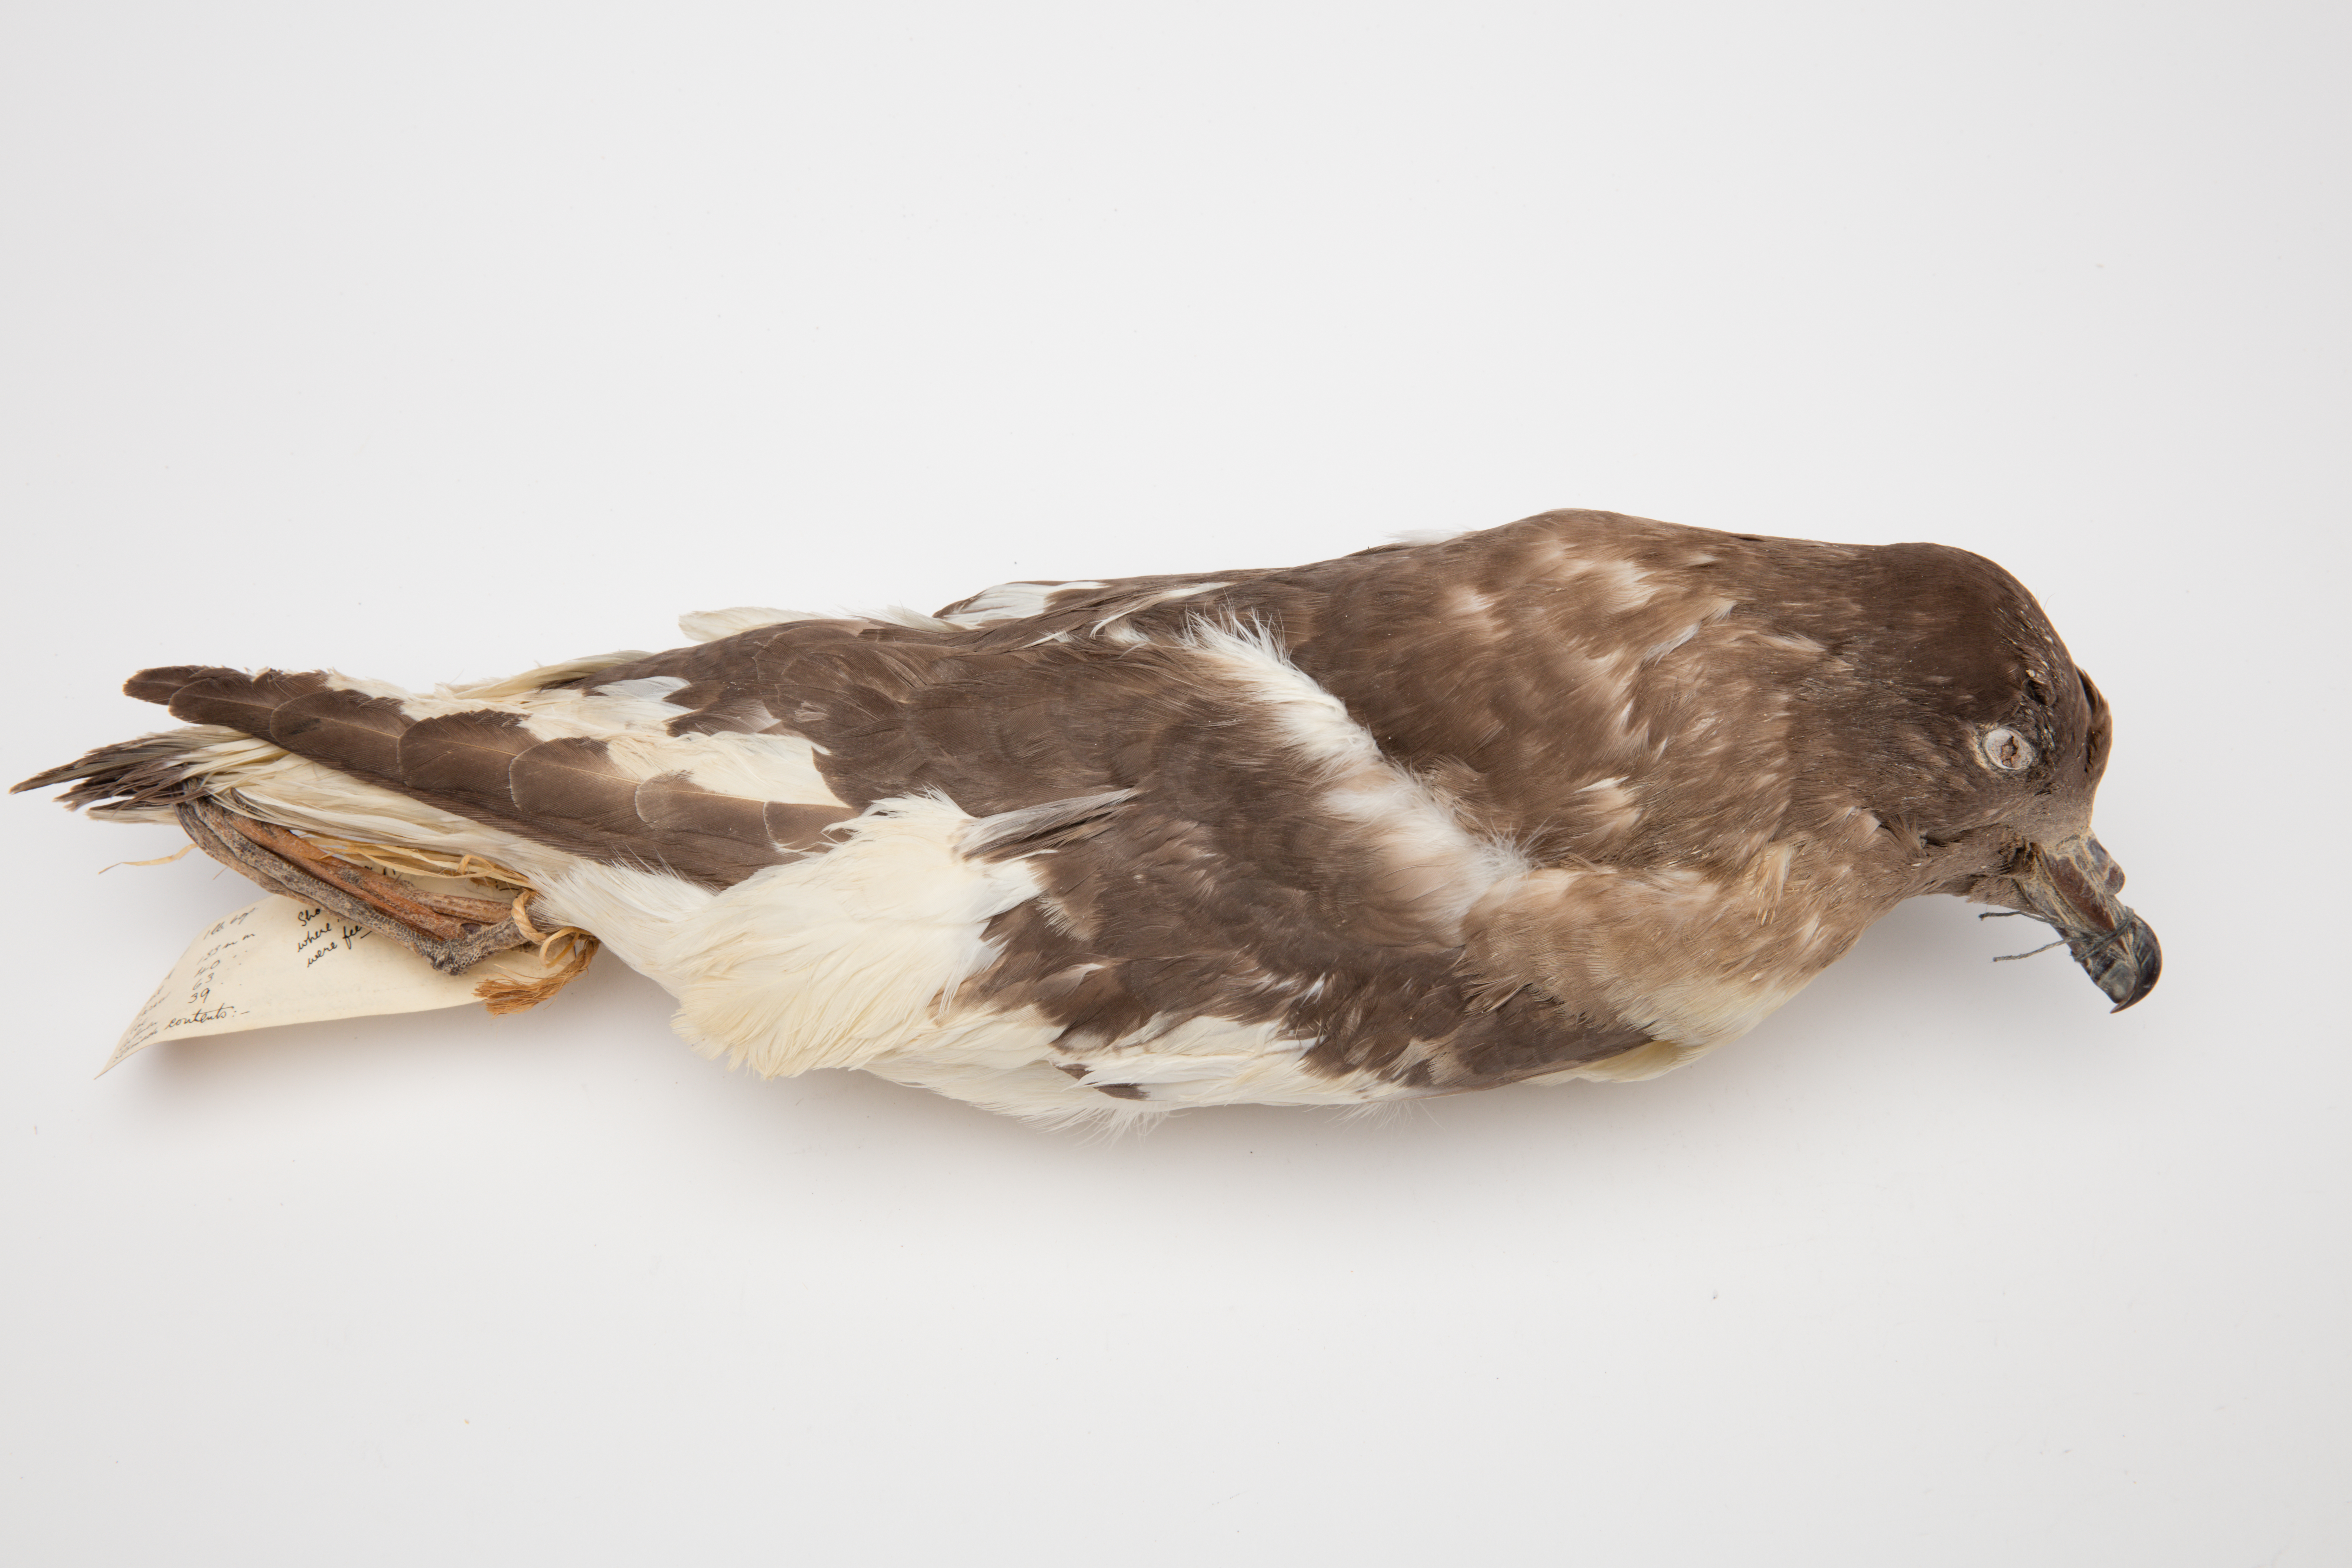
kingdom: Animalia
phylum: Chordata
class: Aves
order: Procellariiformes
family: Procellariidae
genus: Thalassoica
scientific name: Thalassoica antarctica
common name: Antarctic petrel
